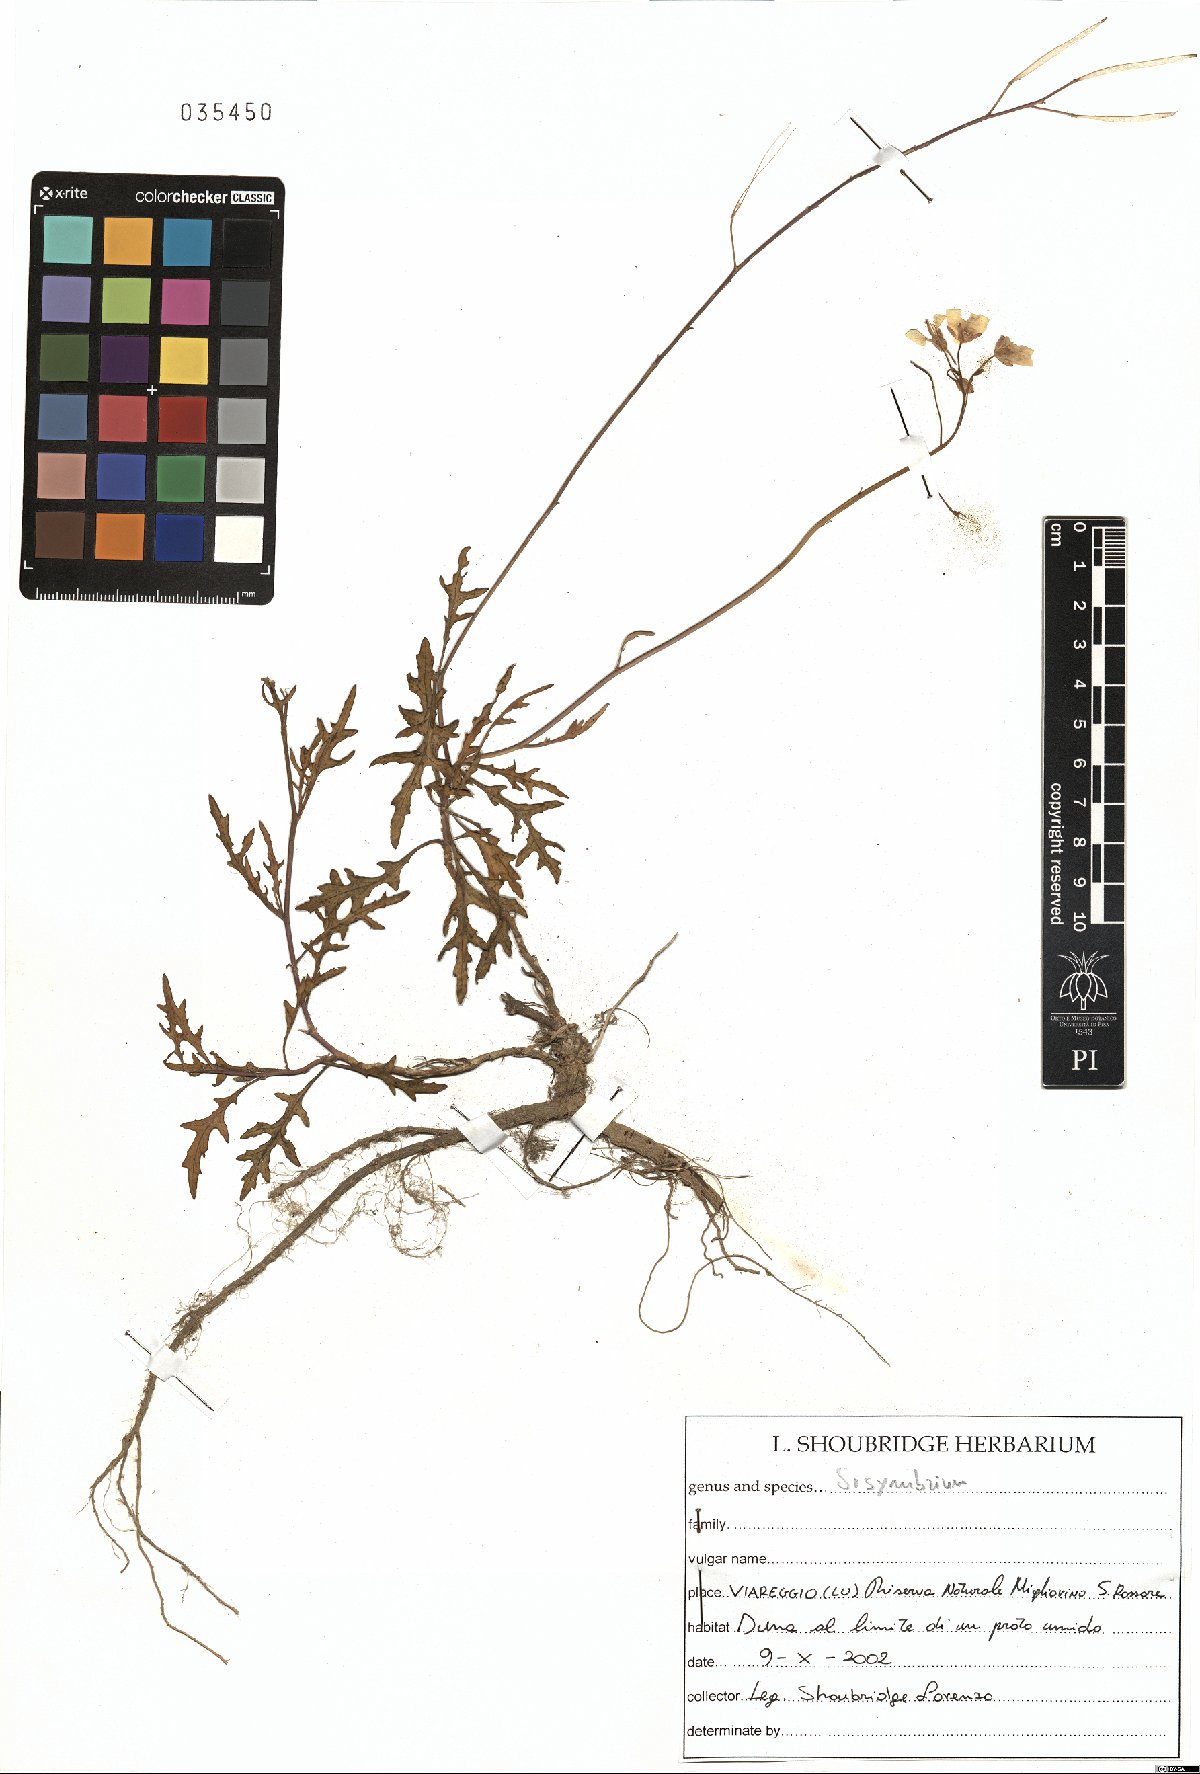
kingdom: Plantae
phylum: Tracheophyta
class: Magnoliopsida
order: Brassicales
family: Brassicaceae
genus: Sisymbrium
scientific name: Sisymbrium
